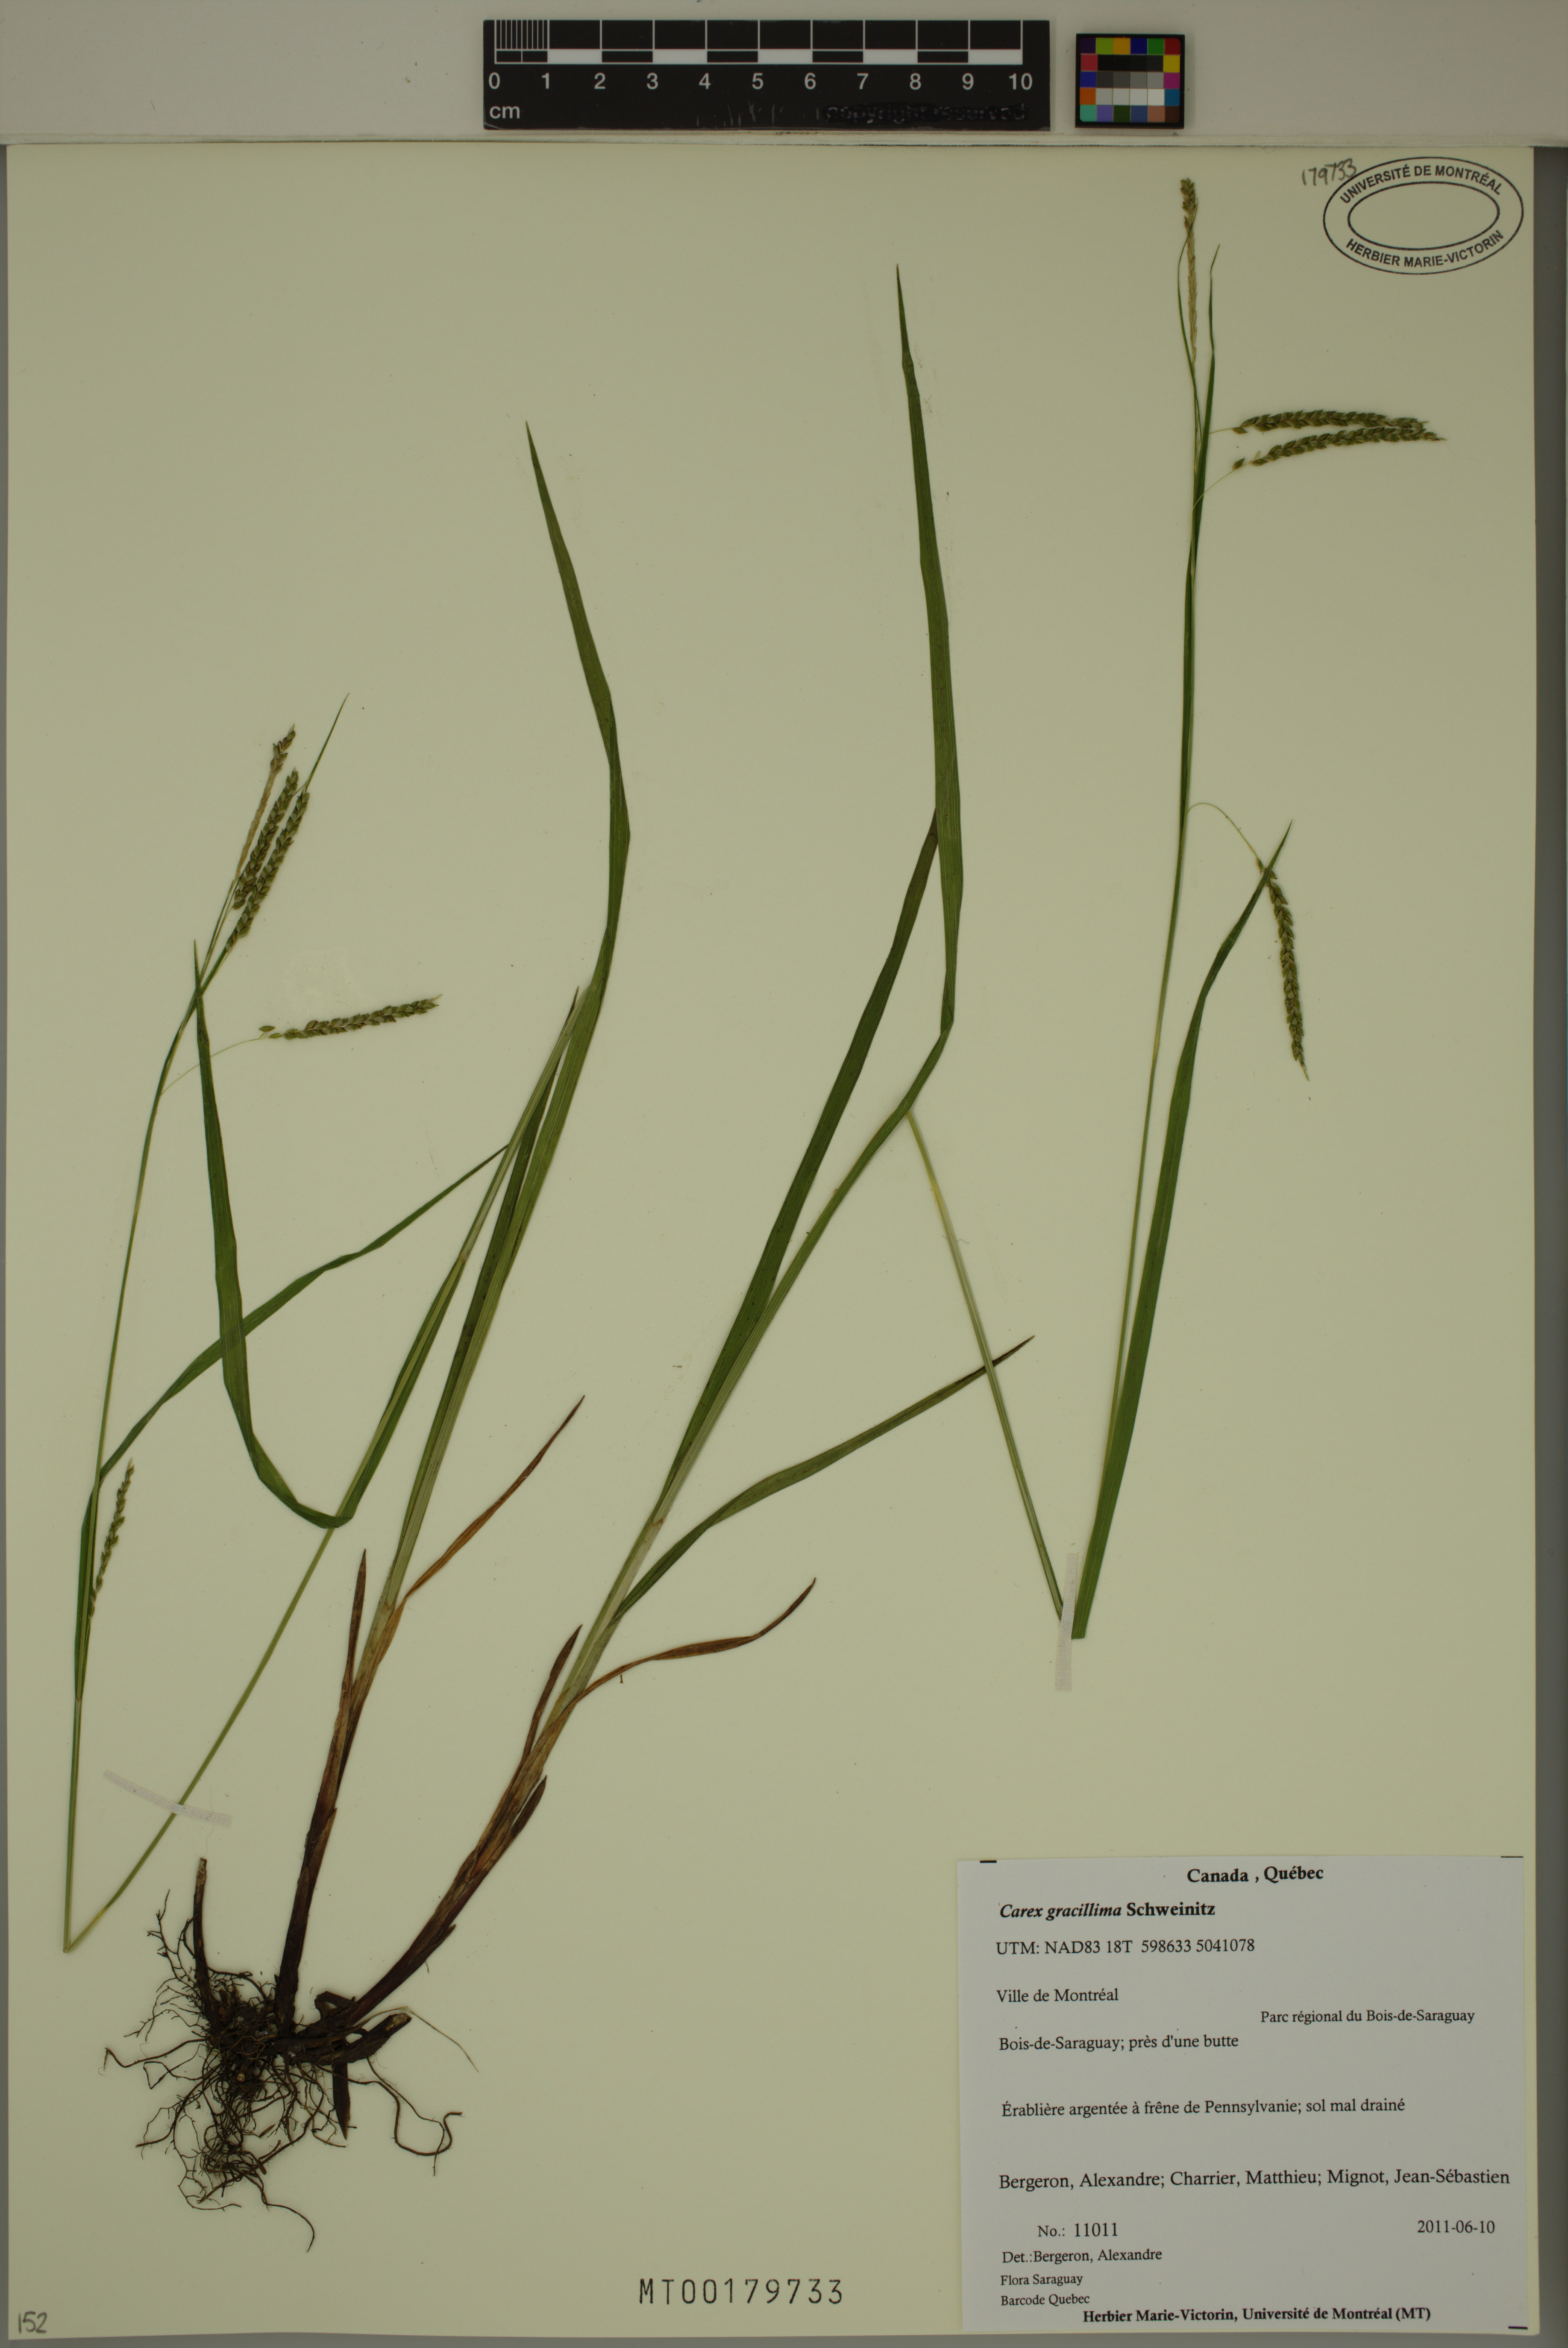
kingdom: Plantae
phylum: Tracheophyta
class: Liliopsida
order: Poales
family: Cyperaceae
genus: Carex
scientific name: Carex gracillima
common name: Graceful sedge
